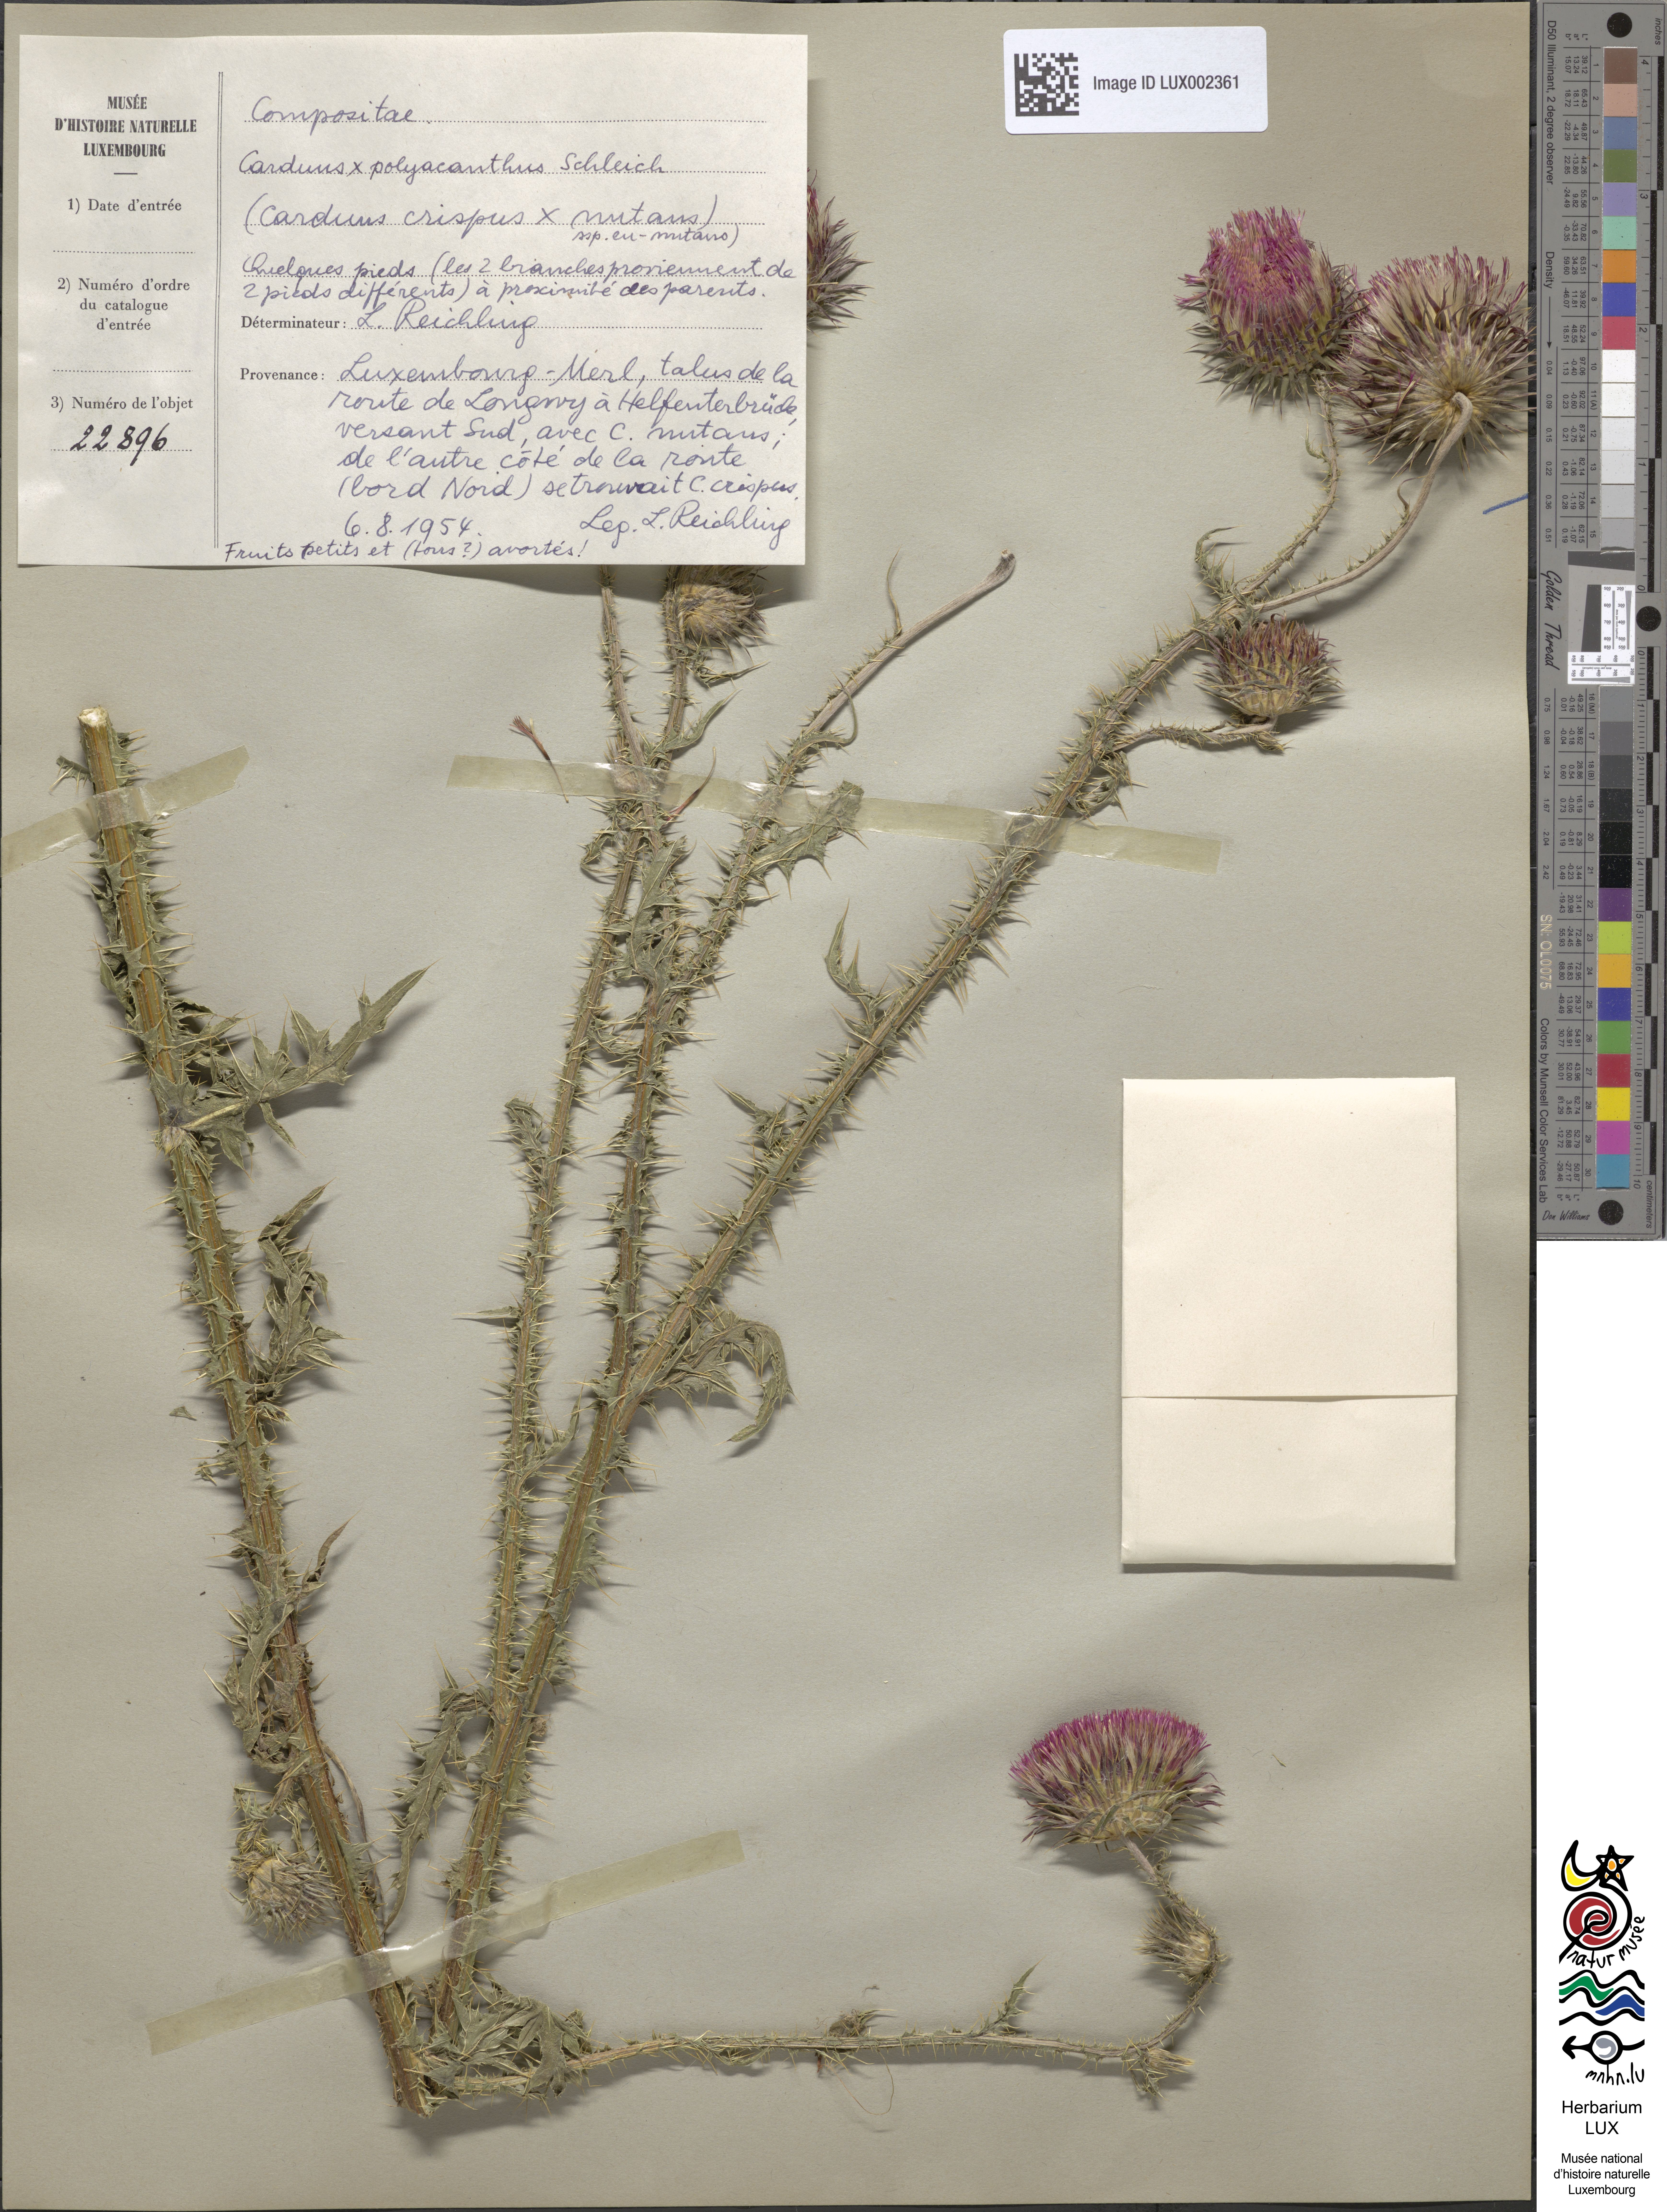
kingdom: Plantae
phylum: Tracheophyta
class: Magnoliopsida
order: Asterales
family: Asteraceae
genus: Carduus
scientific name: Carduus
